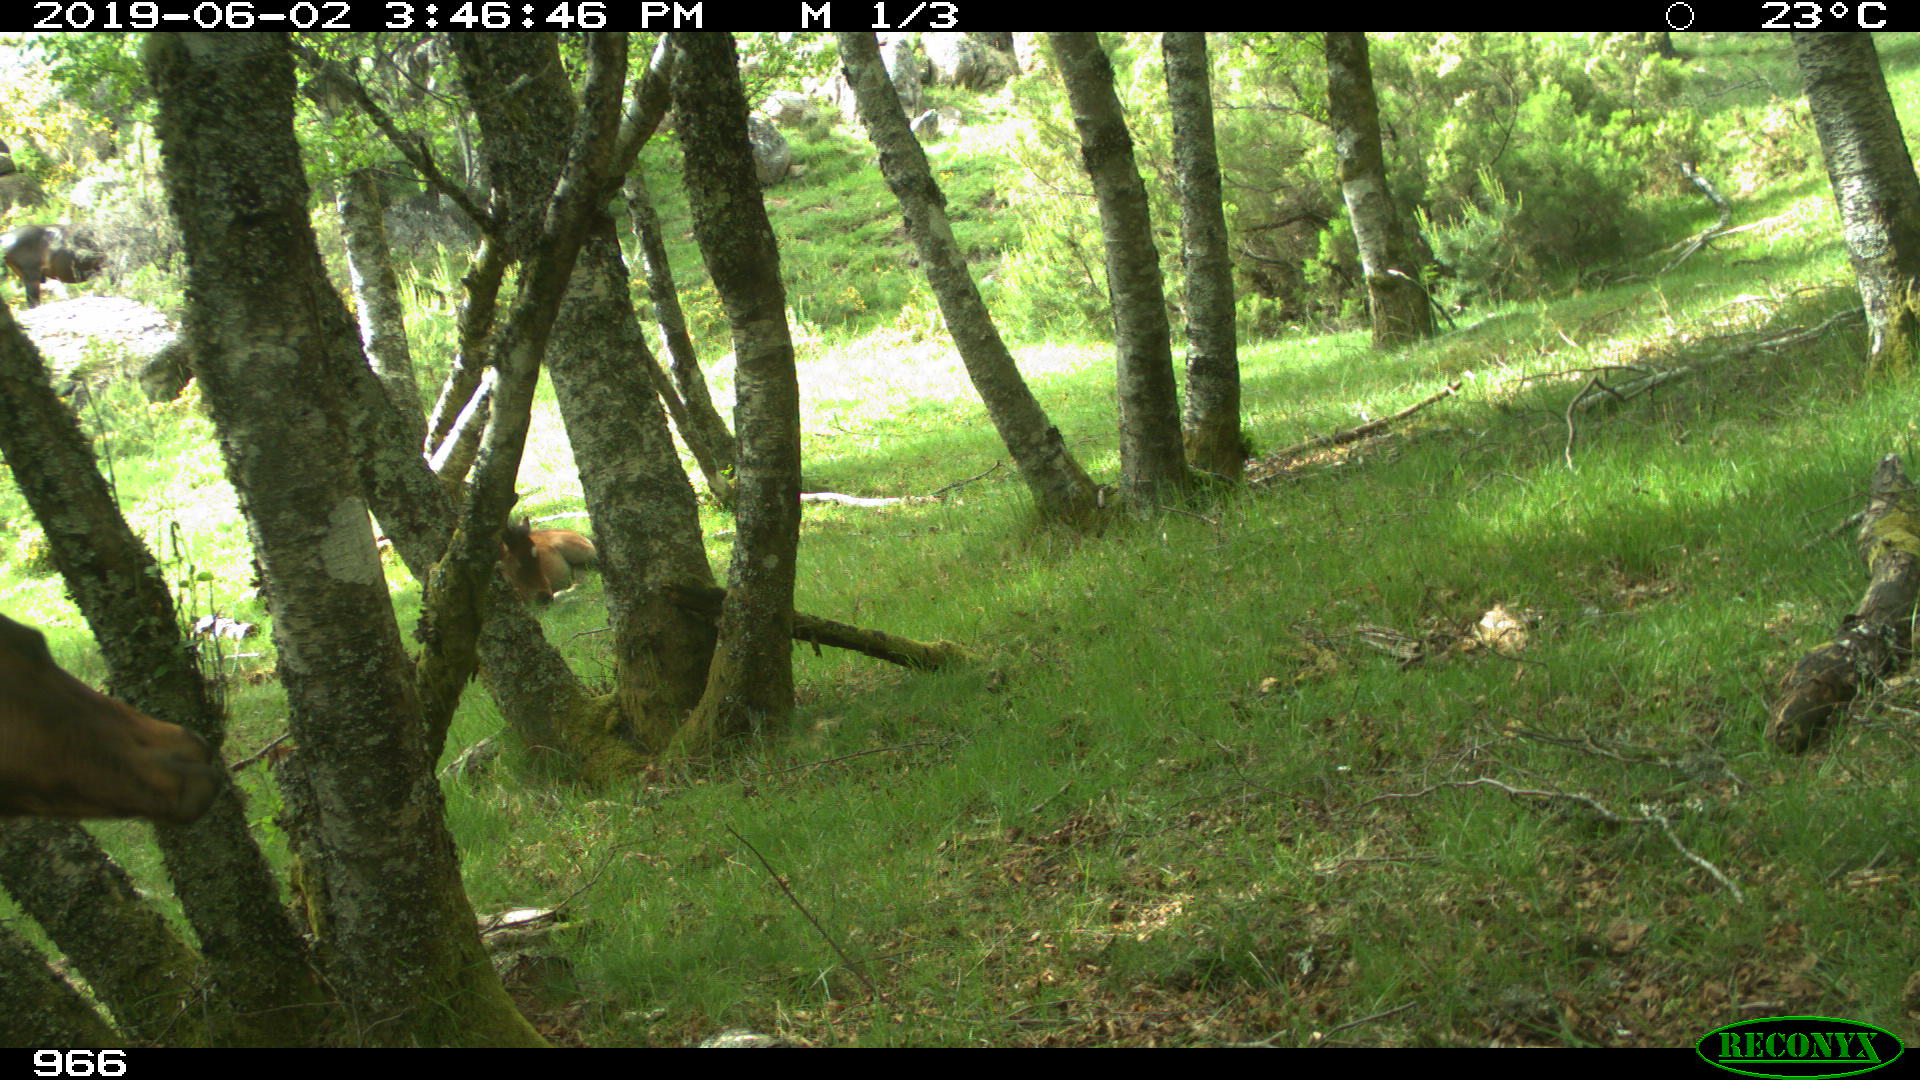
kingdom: Animalia
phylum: Chordata
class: Mammalia
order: Perissodactyla
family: Equidae
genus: Equus
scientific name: Equus caballus
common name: Horse
